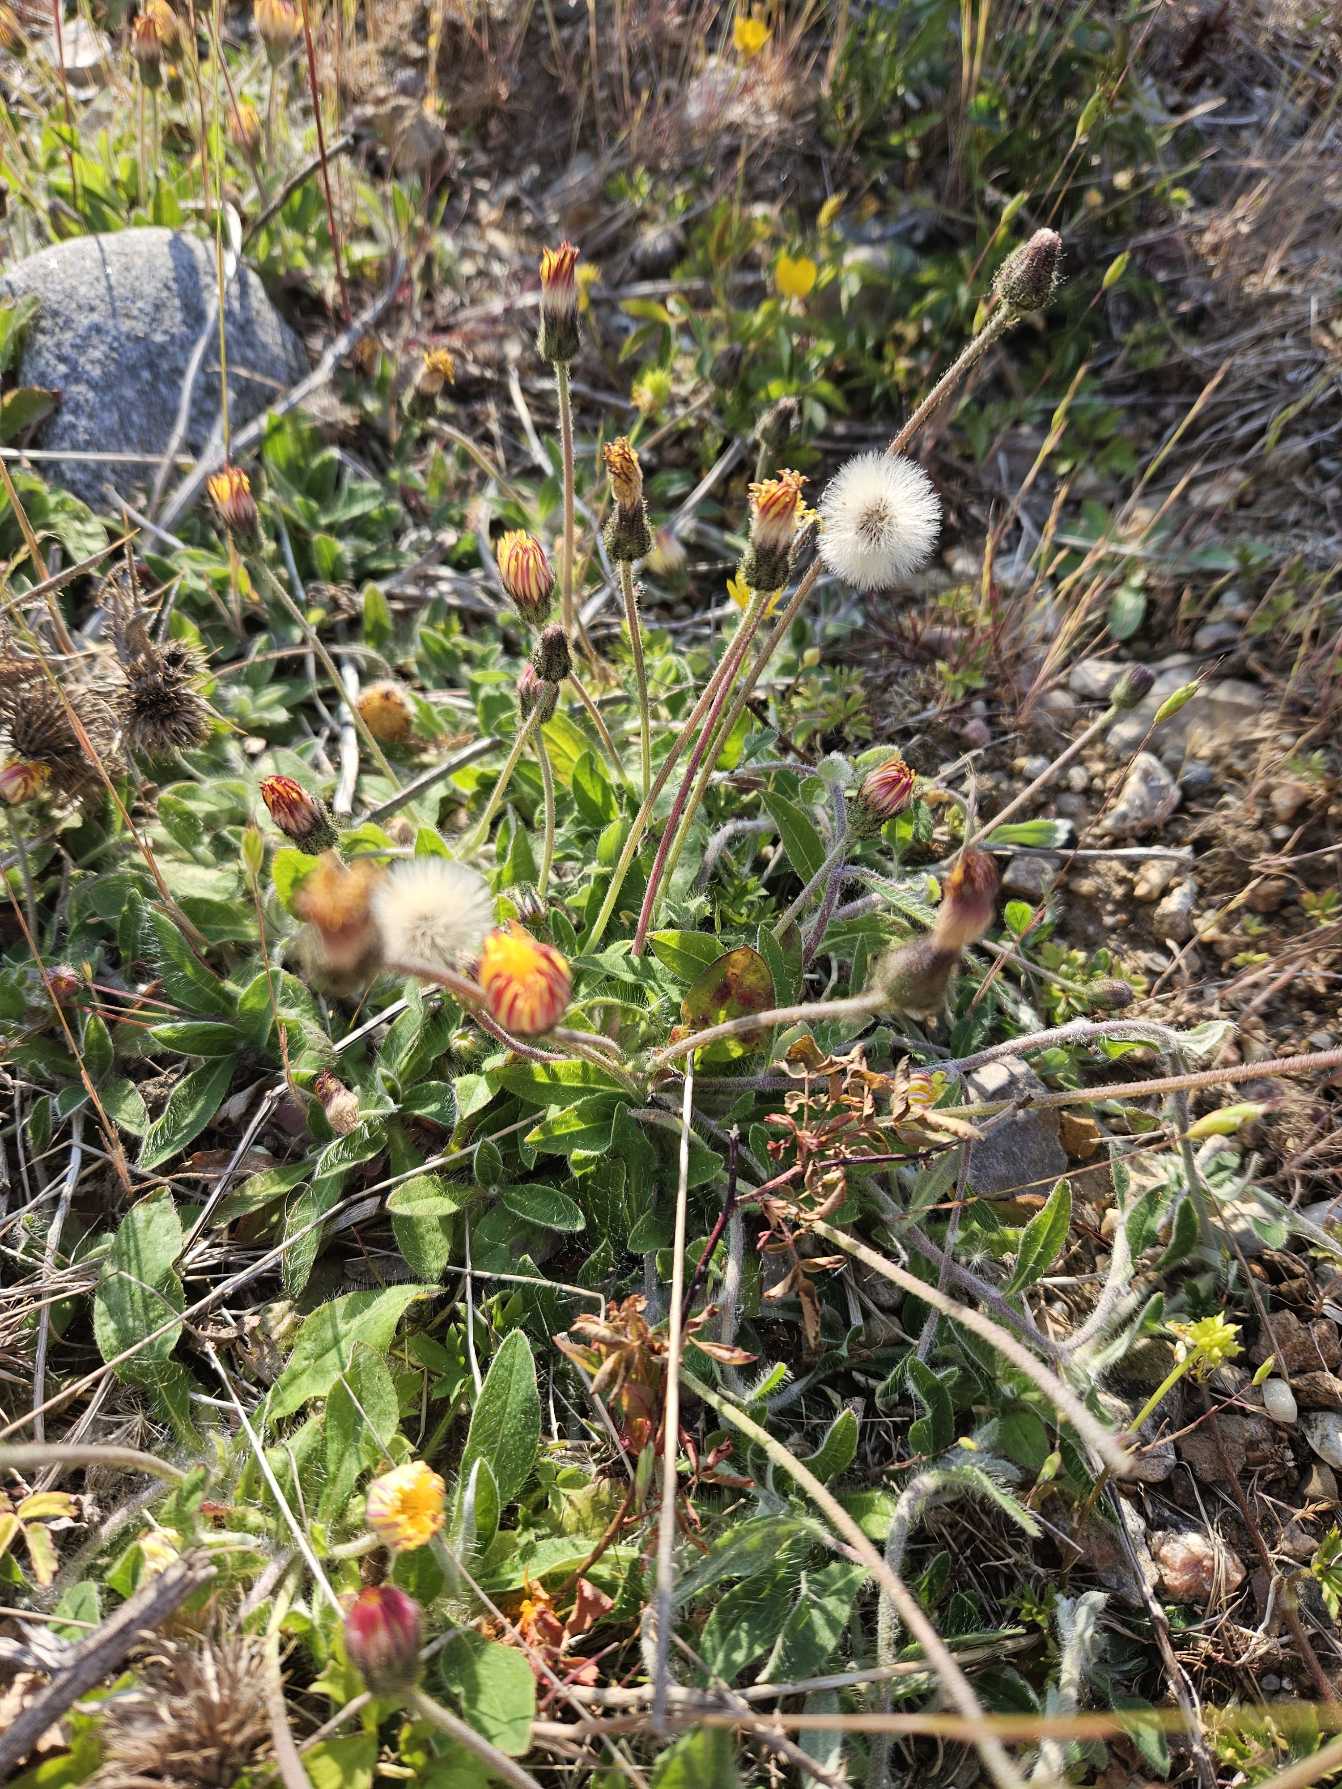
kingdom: Plantae
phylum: Tracheophyta
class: Magnoliopsida
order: Asterales
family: Asteraceae
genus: Pilosella
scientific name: Pilosella officinarum
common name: Håret høgeurt
